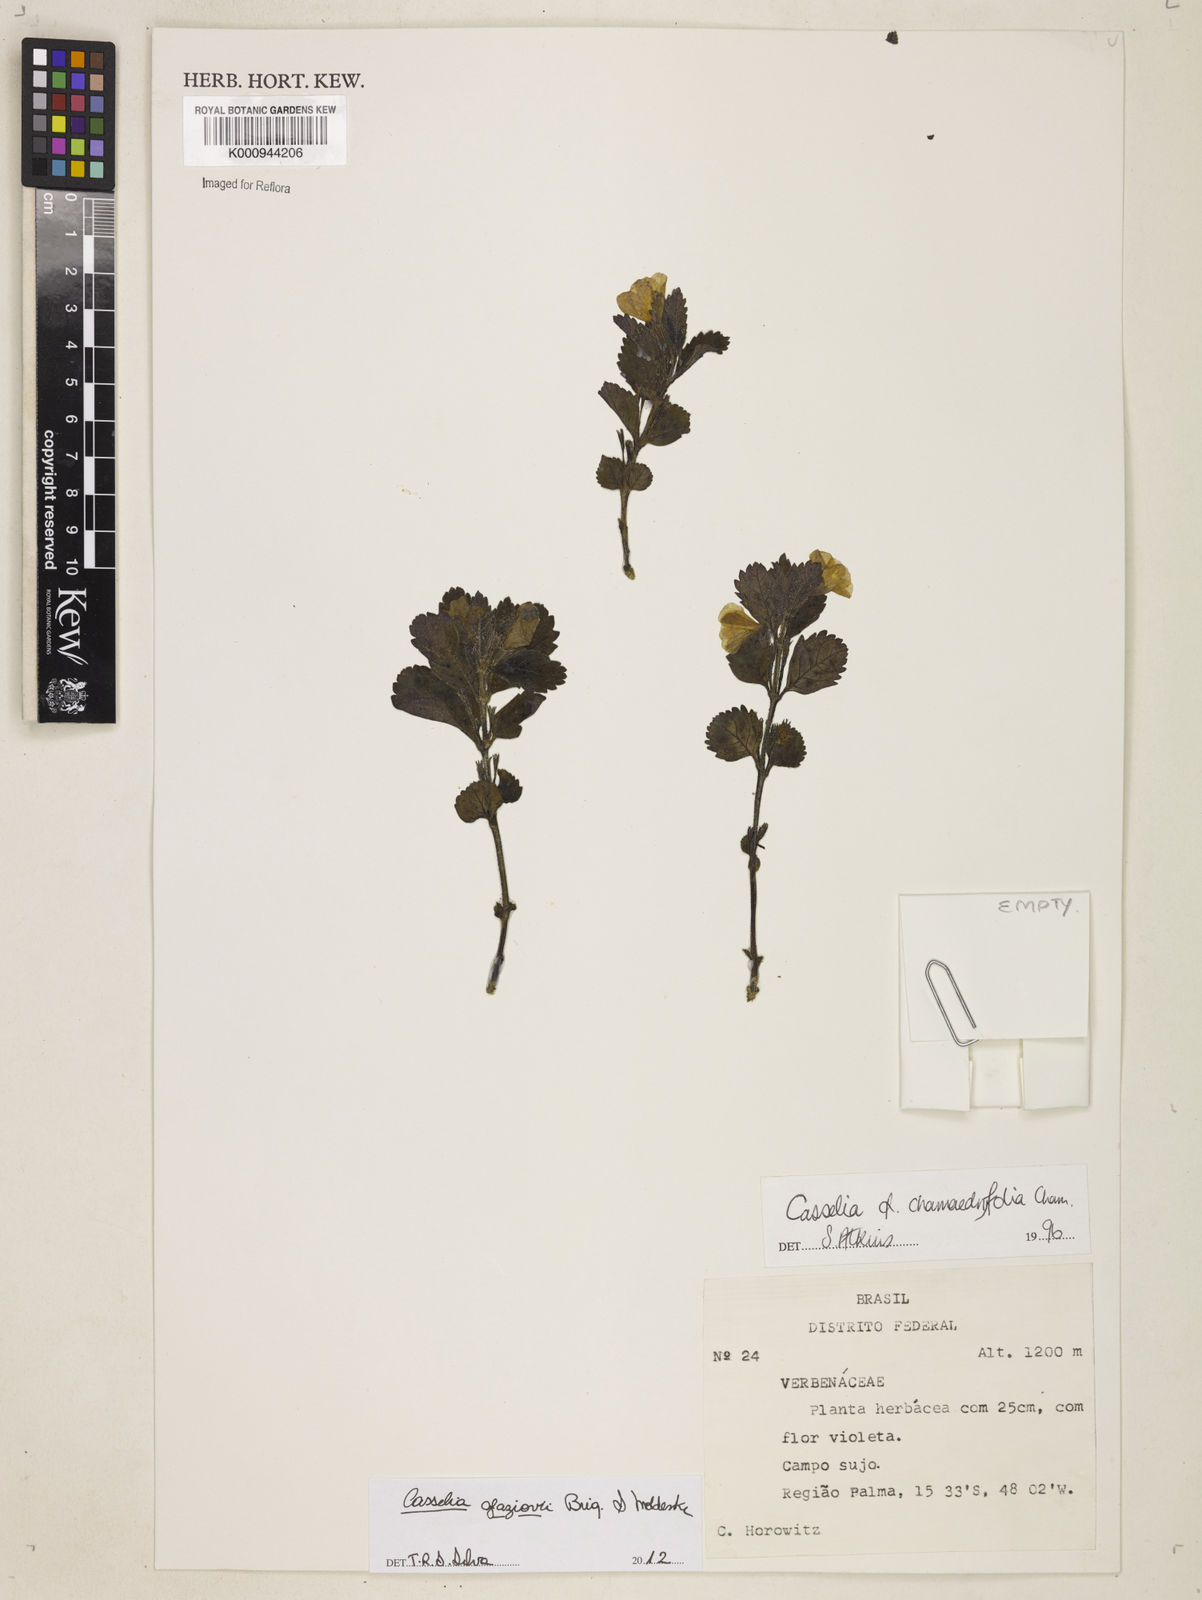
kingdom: Plantae
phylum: Tracheophyta
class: Magnoliopsida
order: Lamiales
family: Verbenaceae
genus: Casselia
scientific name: Casselia glaziovii
